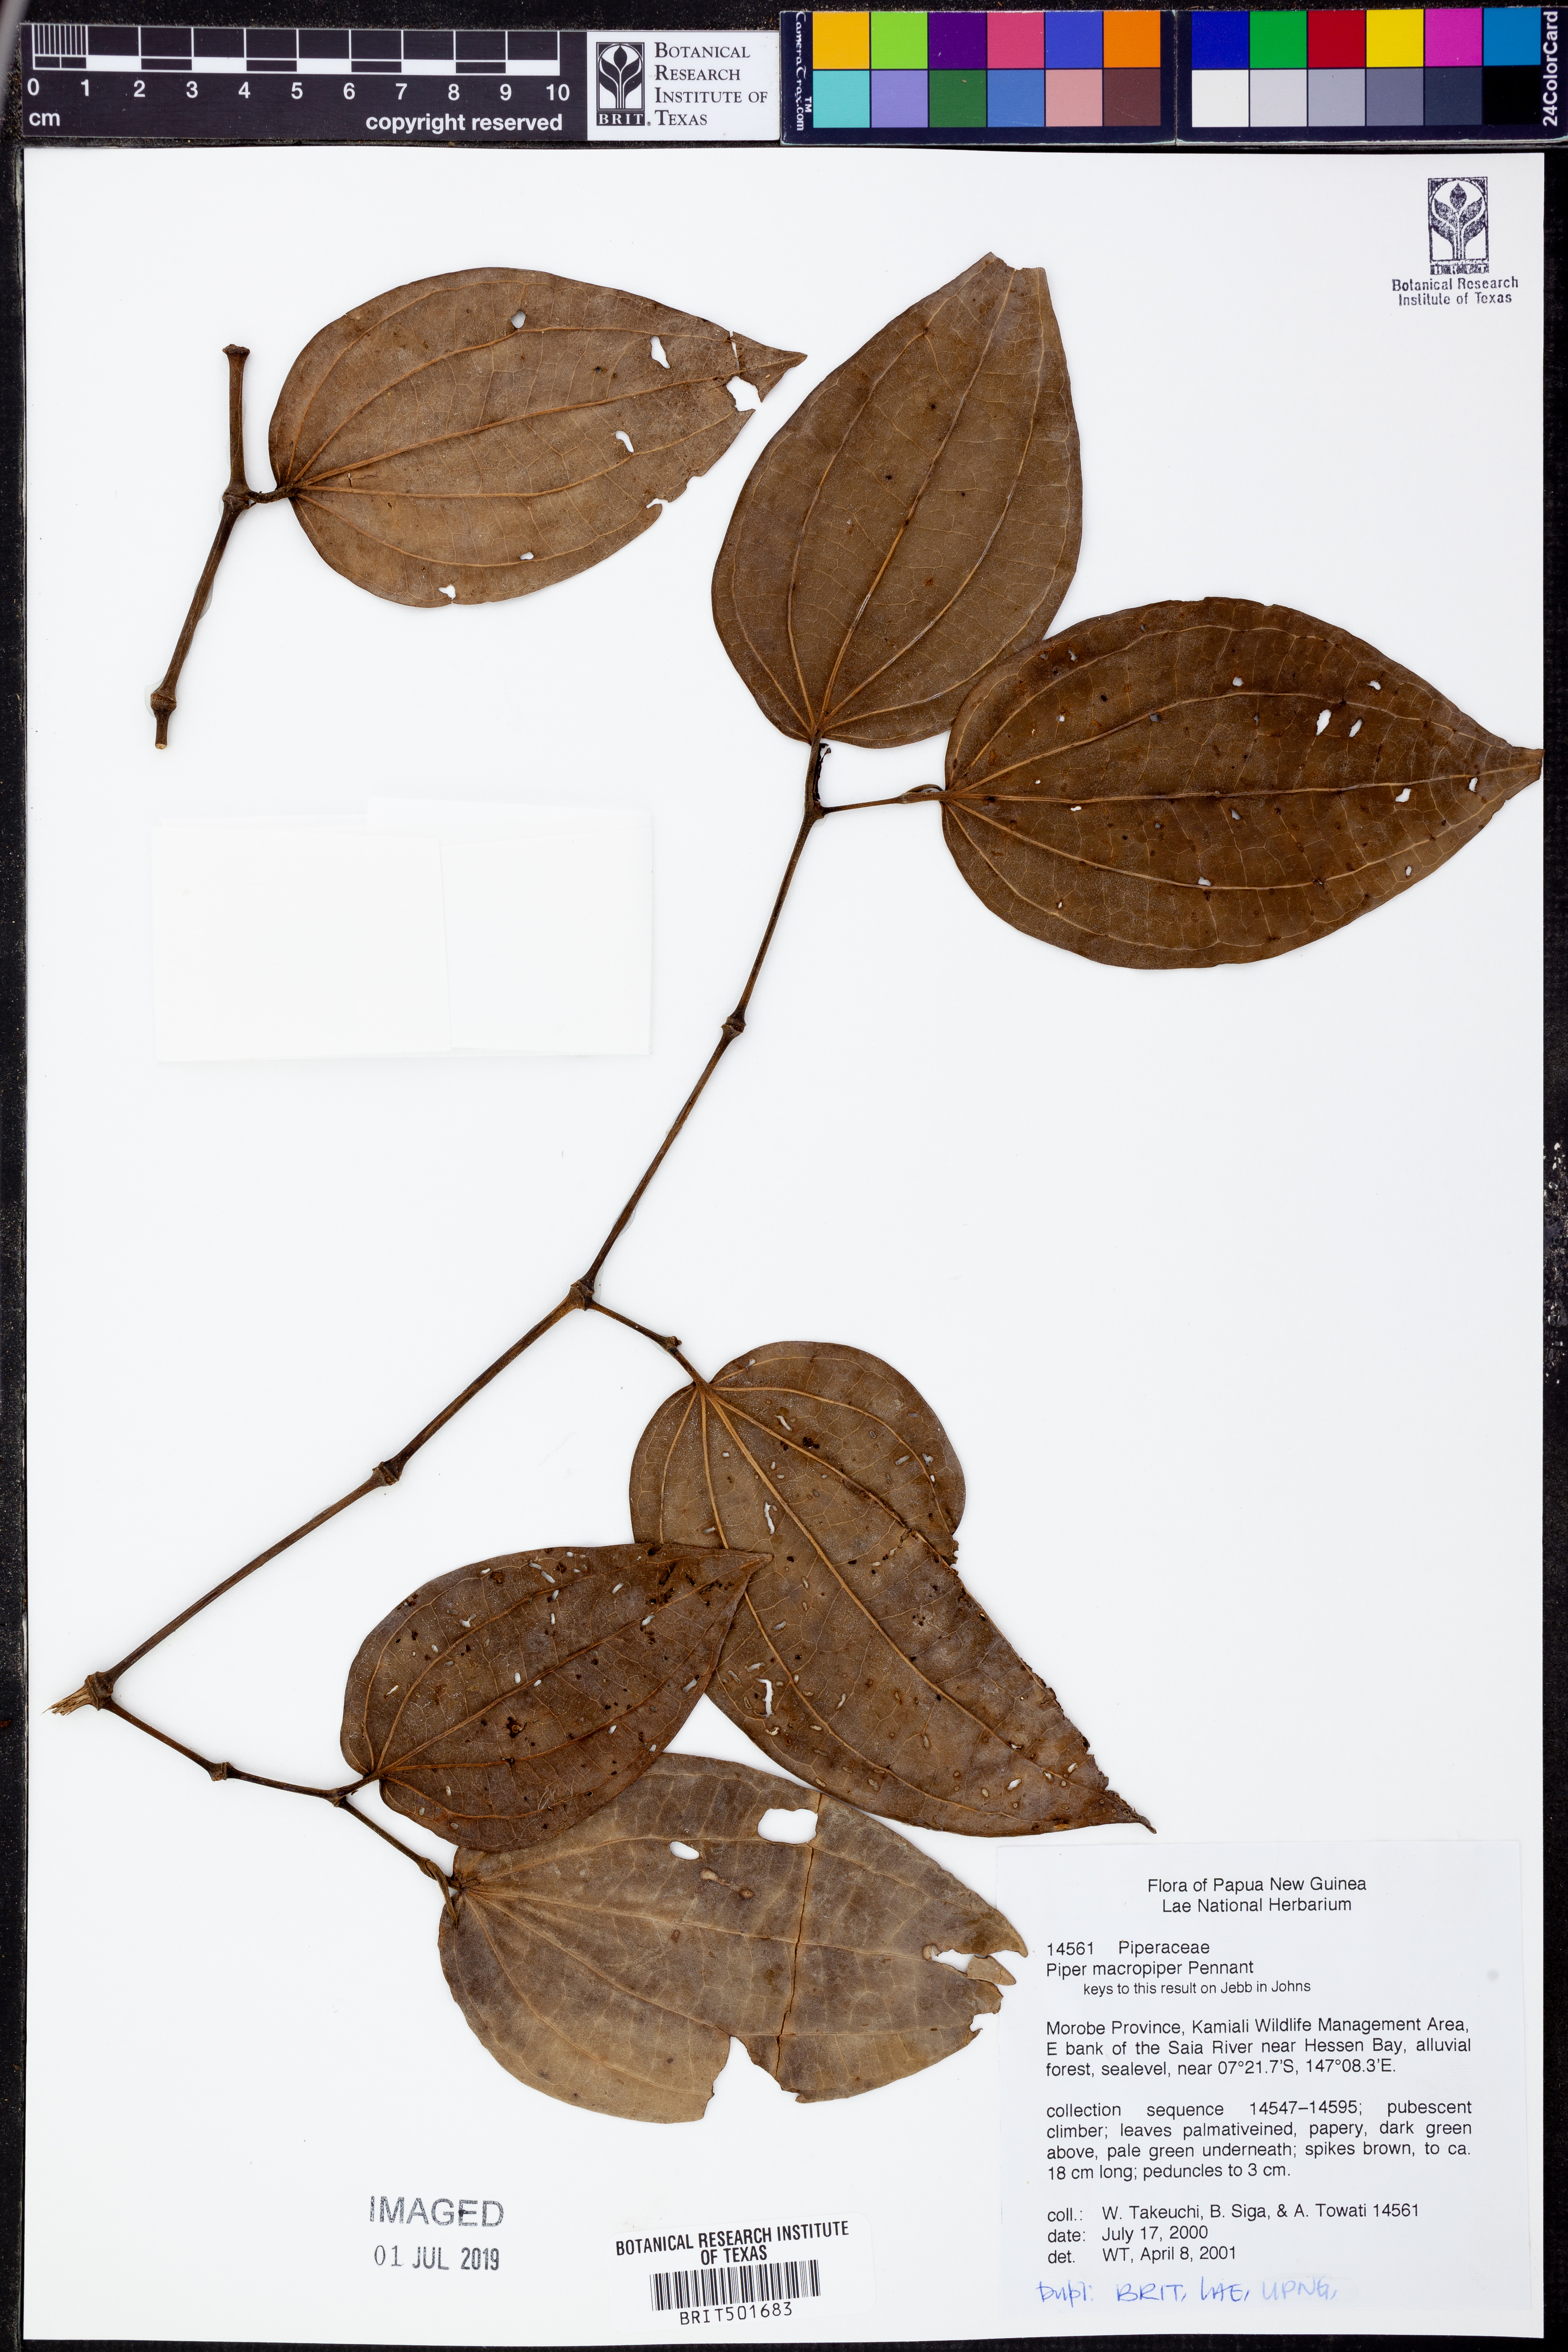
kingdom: Plantae
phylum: Tracheophyta
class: Magnoliopsida
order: Piperales
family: Piperaceae
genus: Piper
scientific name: Piper macropiper
